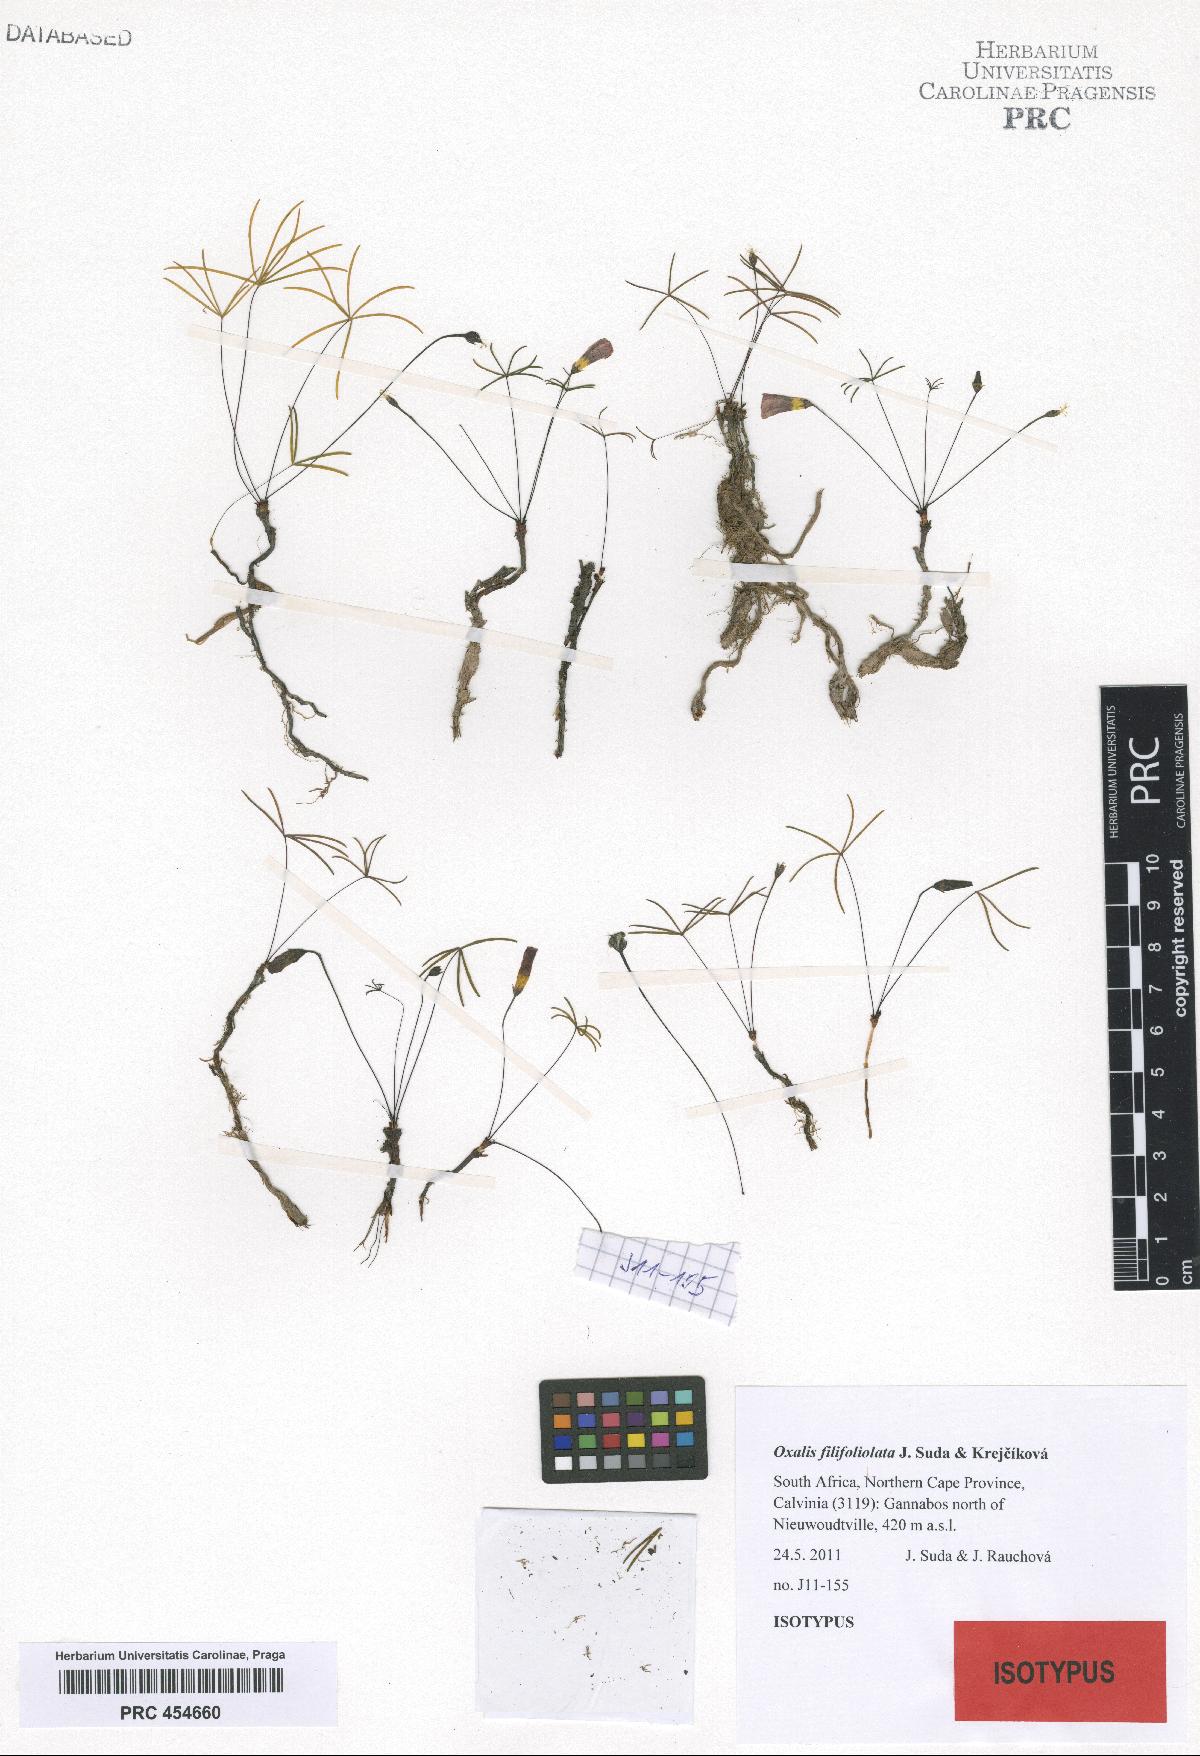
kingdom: Plantae
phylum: Tracheophyta
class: Magnoliopsida
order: Oxalidales
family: Oxalidaceae
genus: Oxalis
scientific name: Oxalis filifoliolata
